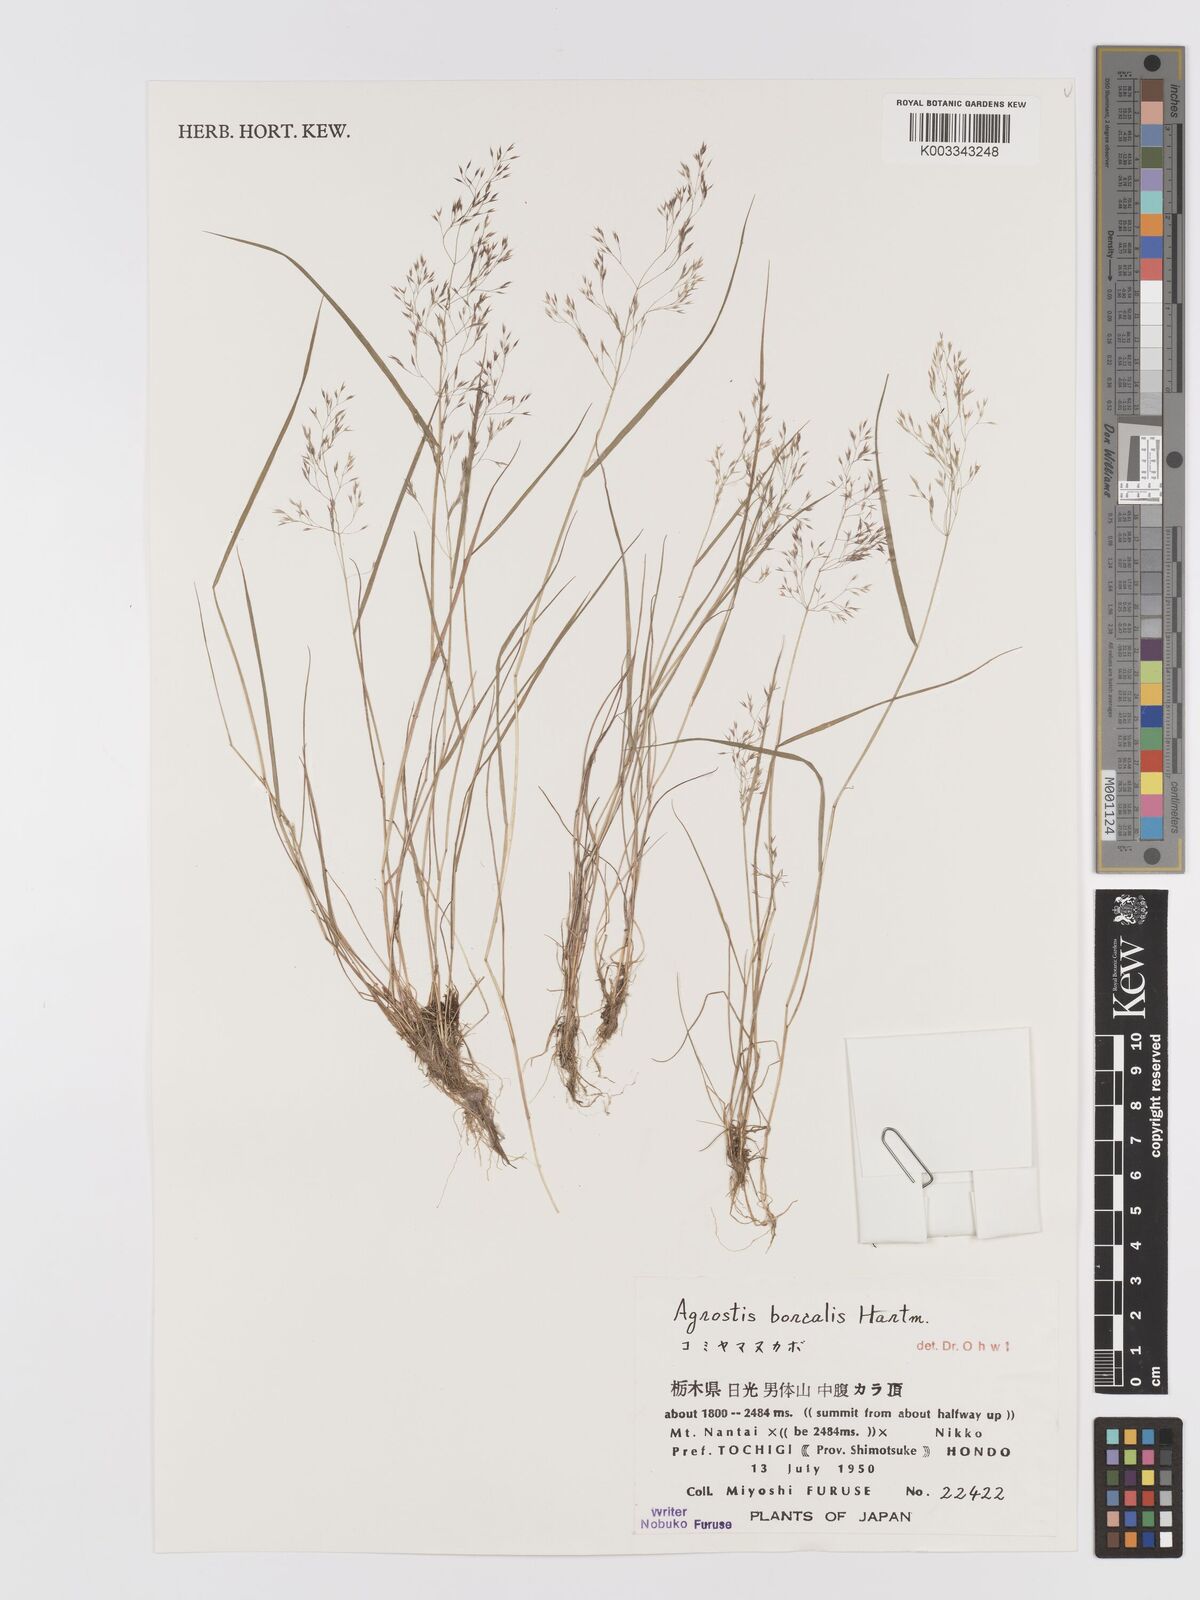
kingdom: Plantae
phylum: Tracheophyta
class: Liliopsida
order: Poales
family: Poaceae
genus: Agrostis
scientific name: Agrostis mertensii
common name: Northern bent
